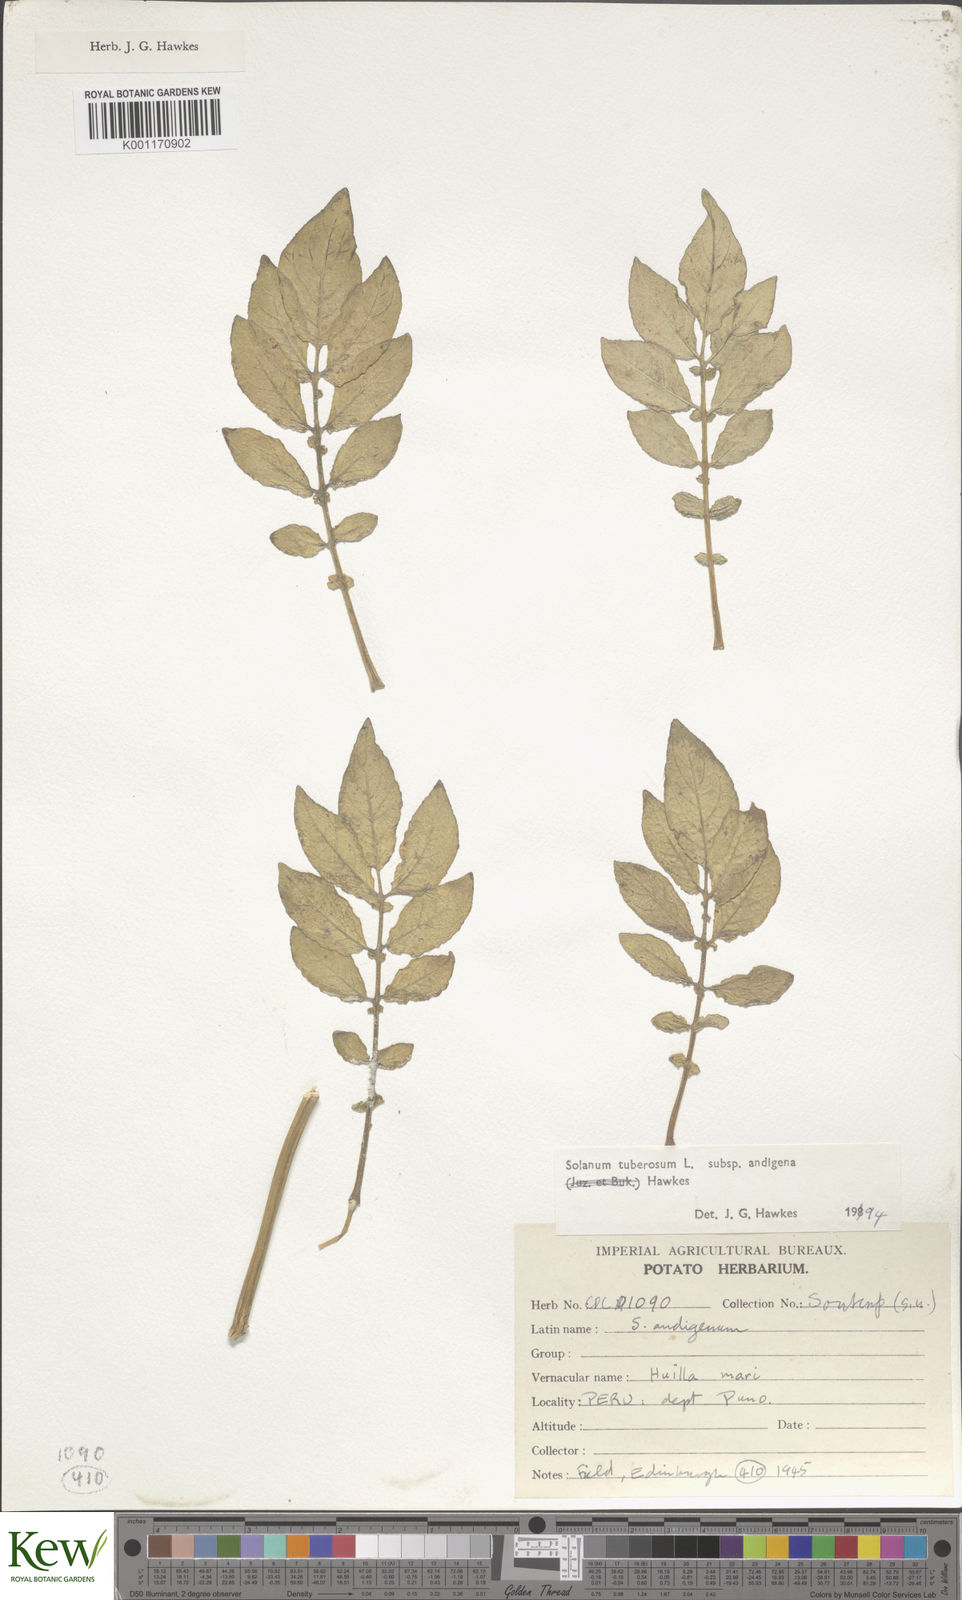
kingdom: Plantae
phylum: Tracheophyta
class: Magnoliopsida
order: Solanales
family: Solanaceae
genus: Solanum
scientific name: Solanum tuberosum
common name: Potato
